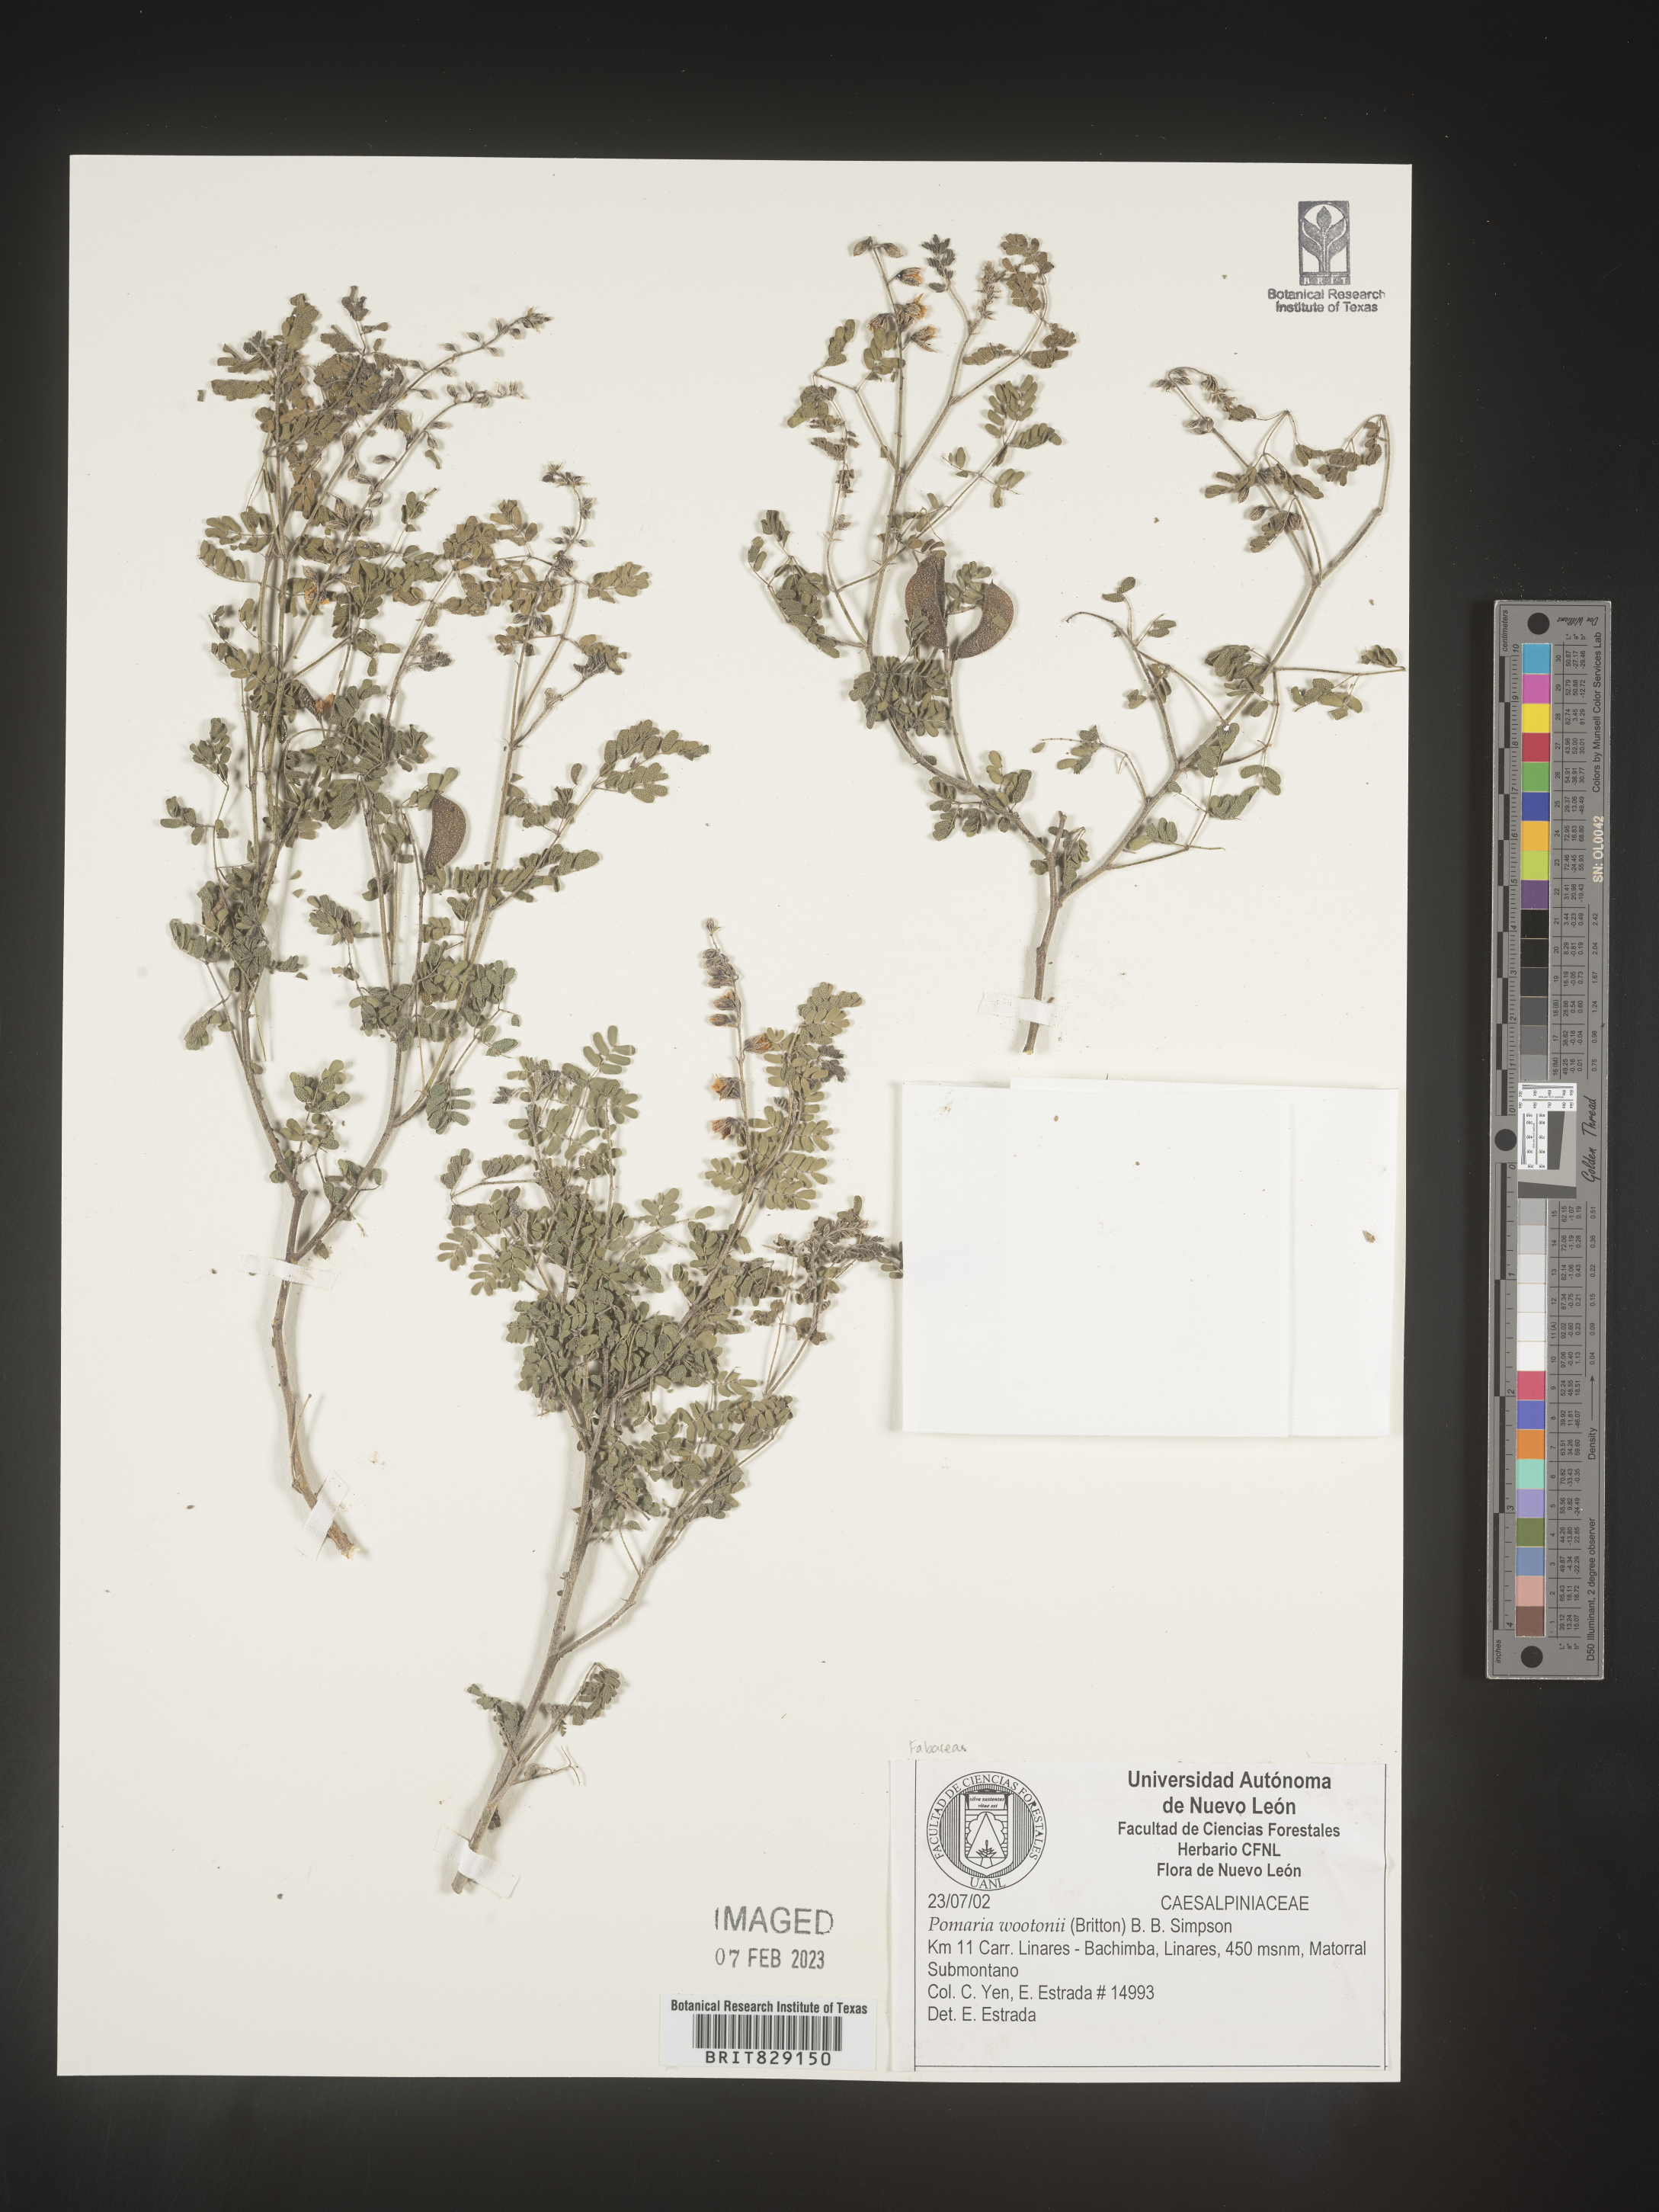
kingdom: Plantae
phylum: Tracheophyta
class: Magnoliopsida
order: Fabales
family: Fabaceae
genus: Pomaria
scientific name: Pomaria
